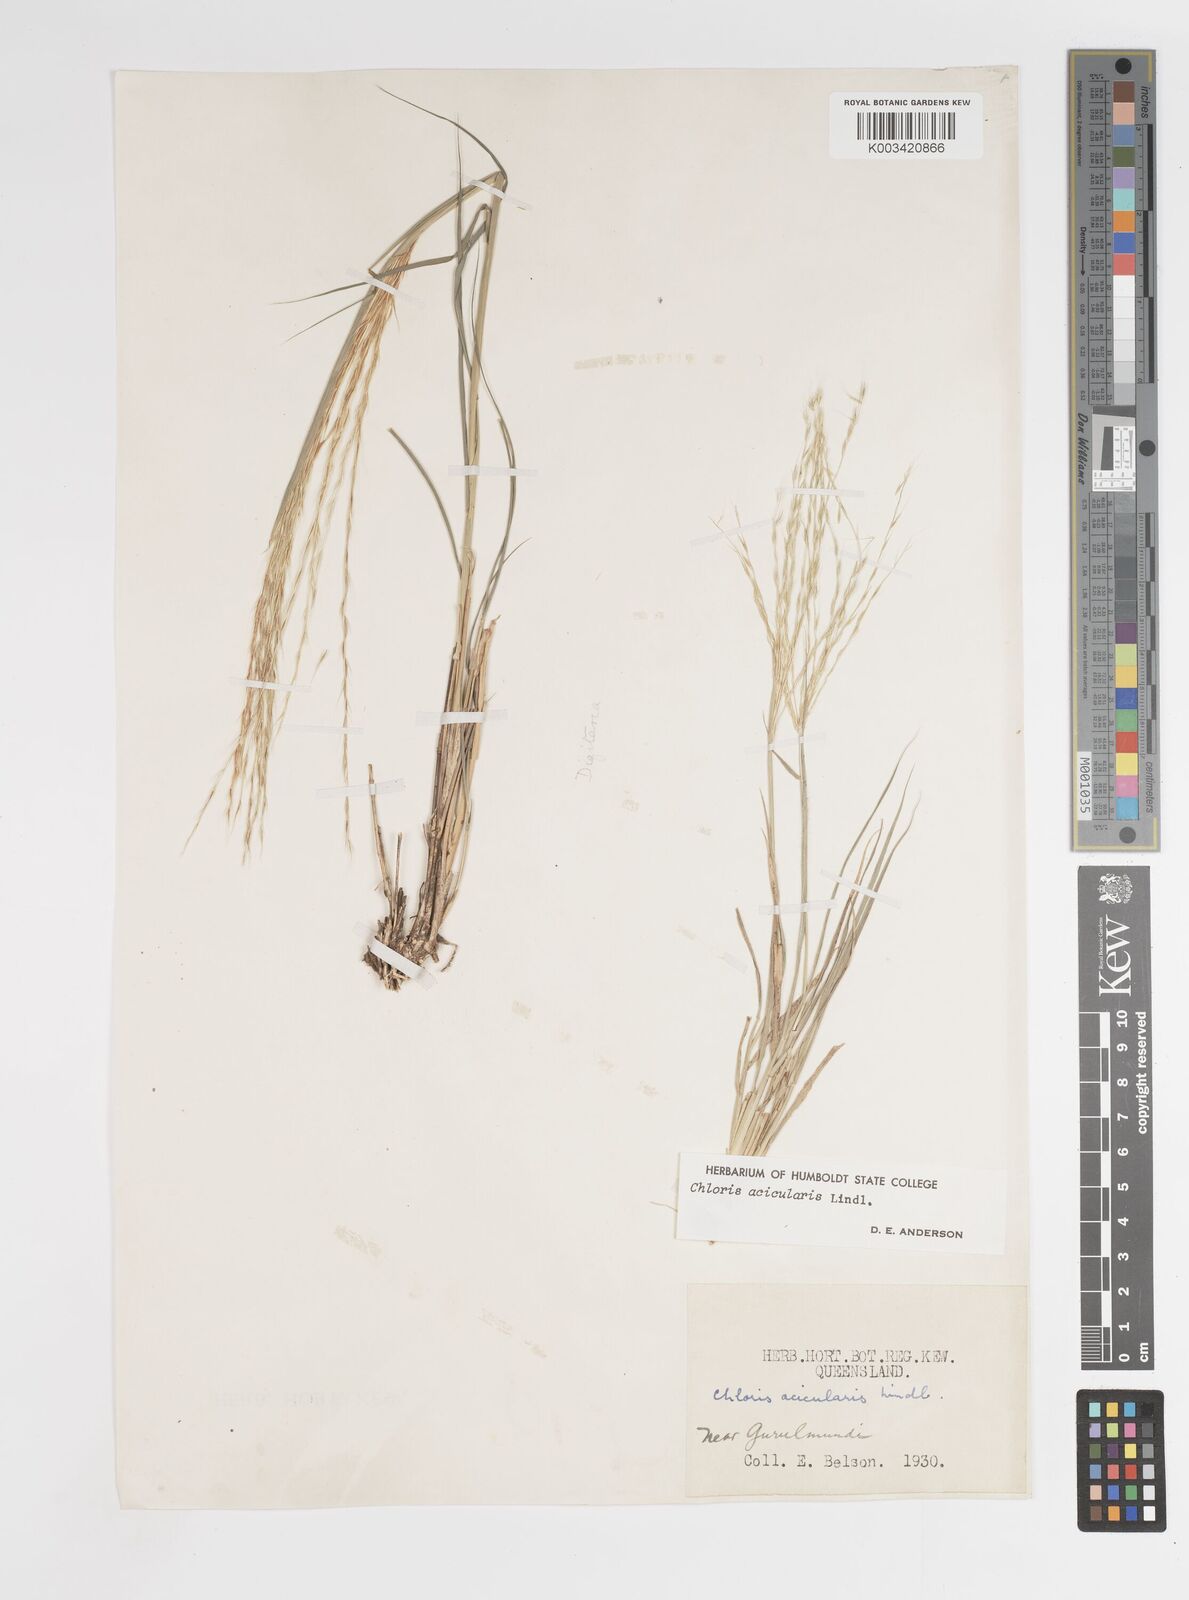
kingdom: Plantae
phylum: Tracheophyta
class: Liliopsida
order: Poales
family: Poaceae
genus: Enteropogon
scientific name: Enteropogon acicularis
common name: Curly windmill grass
